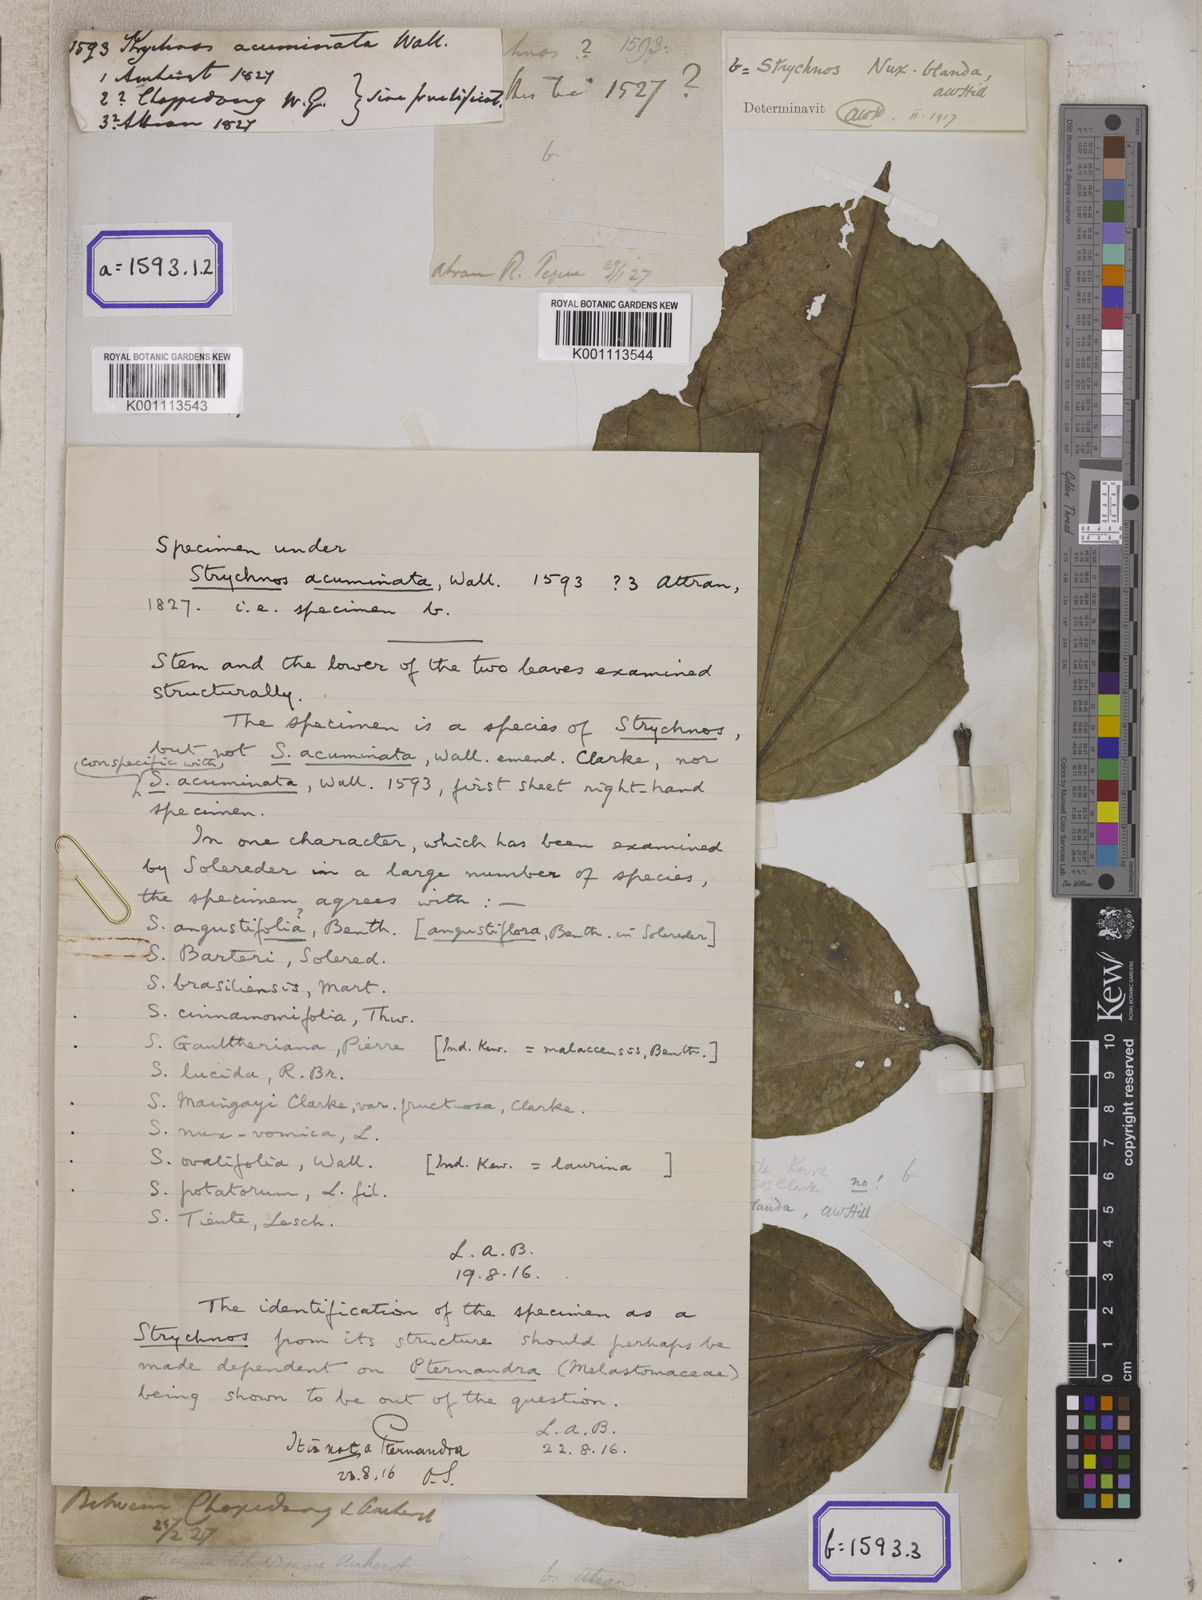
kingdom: Plantae
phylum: Tracheophyta
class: Magnoliopsida
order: Gentianales
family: Loganiaceae
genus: Strychnos
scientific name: Strychnos axillaris
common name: Strychninebush
